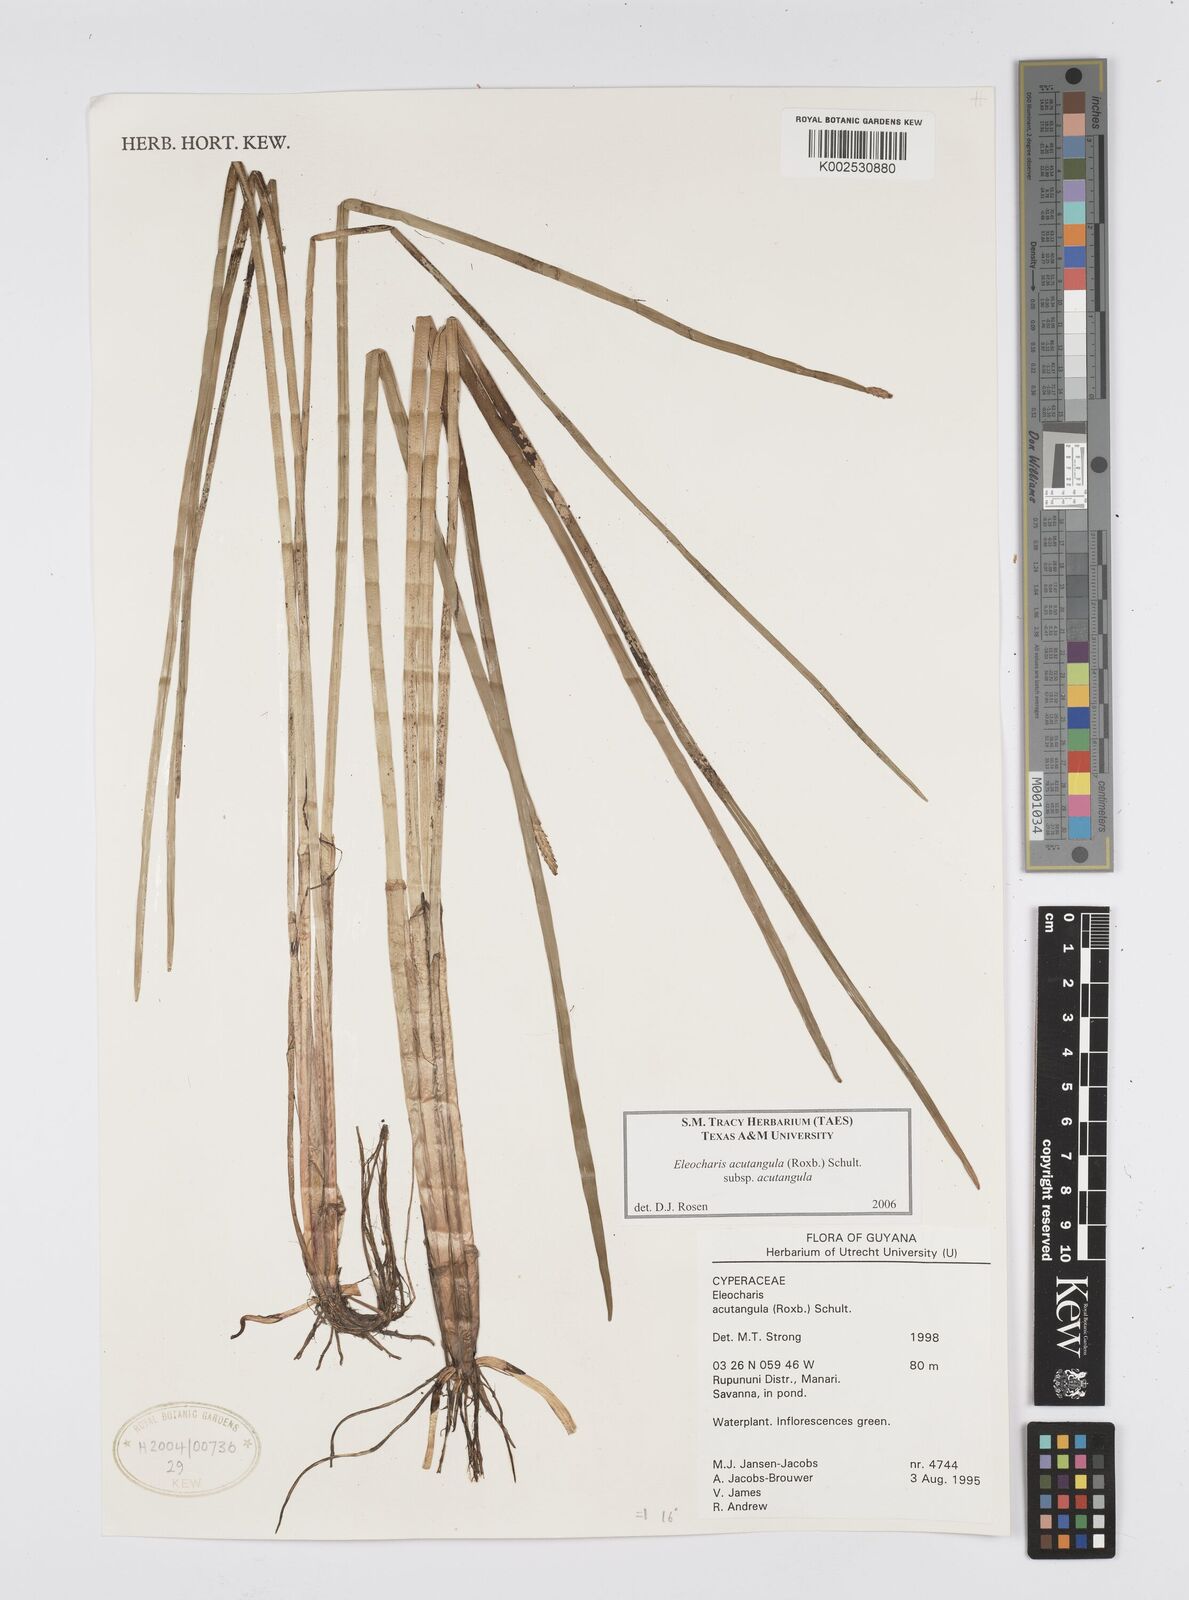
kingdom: Plantae
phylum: Tracheophyta
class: Liliopsida
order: Poales
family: Cyperaceae
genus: Eleocharis
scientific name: Eleocharis acutangula
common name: Acute spikerush
